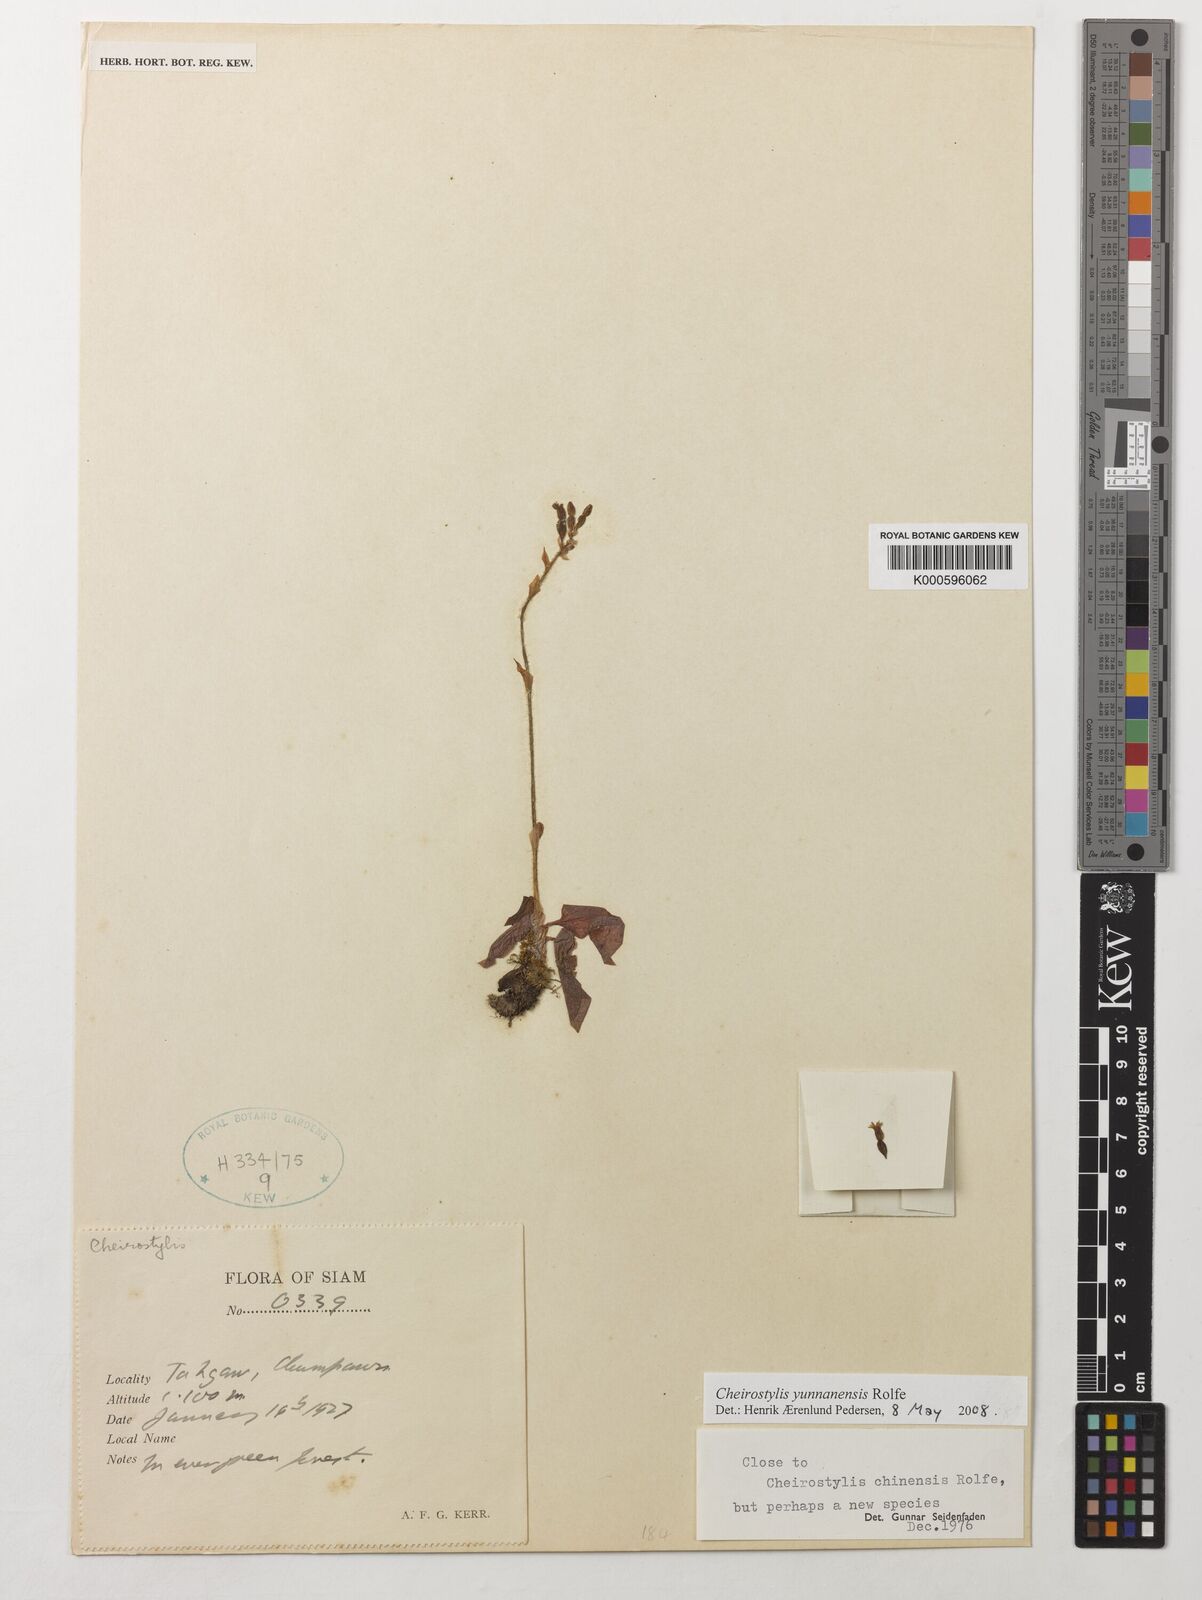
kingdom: Plantae
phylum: Tracheophyta
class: Liliopsida
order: Asparagales
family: Orchidaceae
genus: Cheirostylis
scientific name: Cheirostylis
